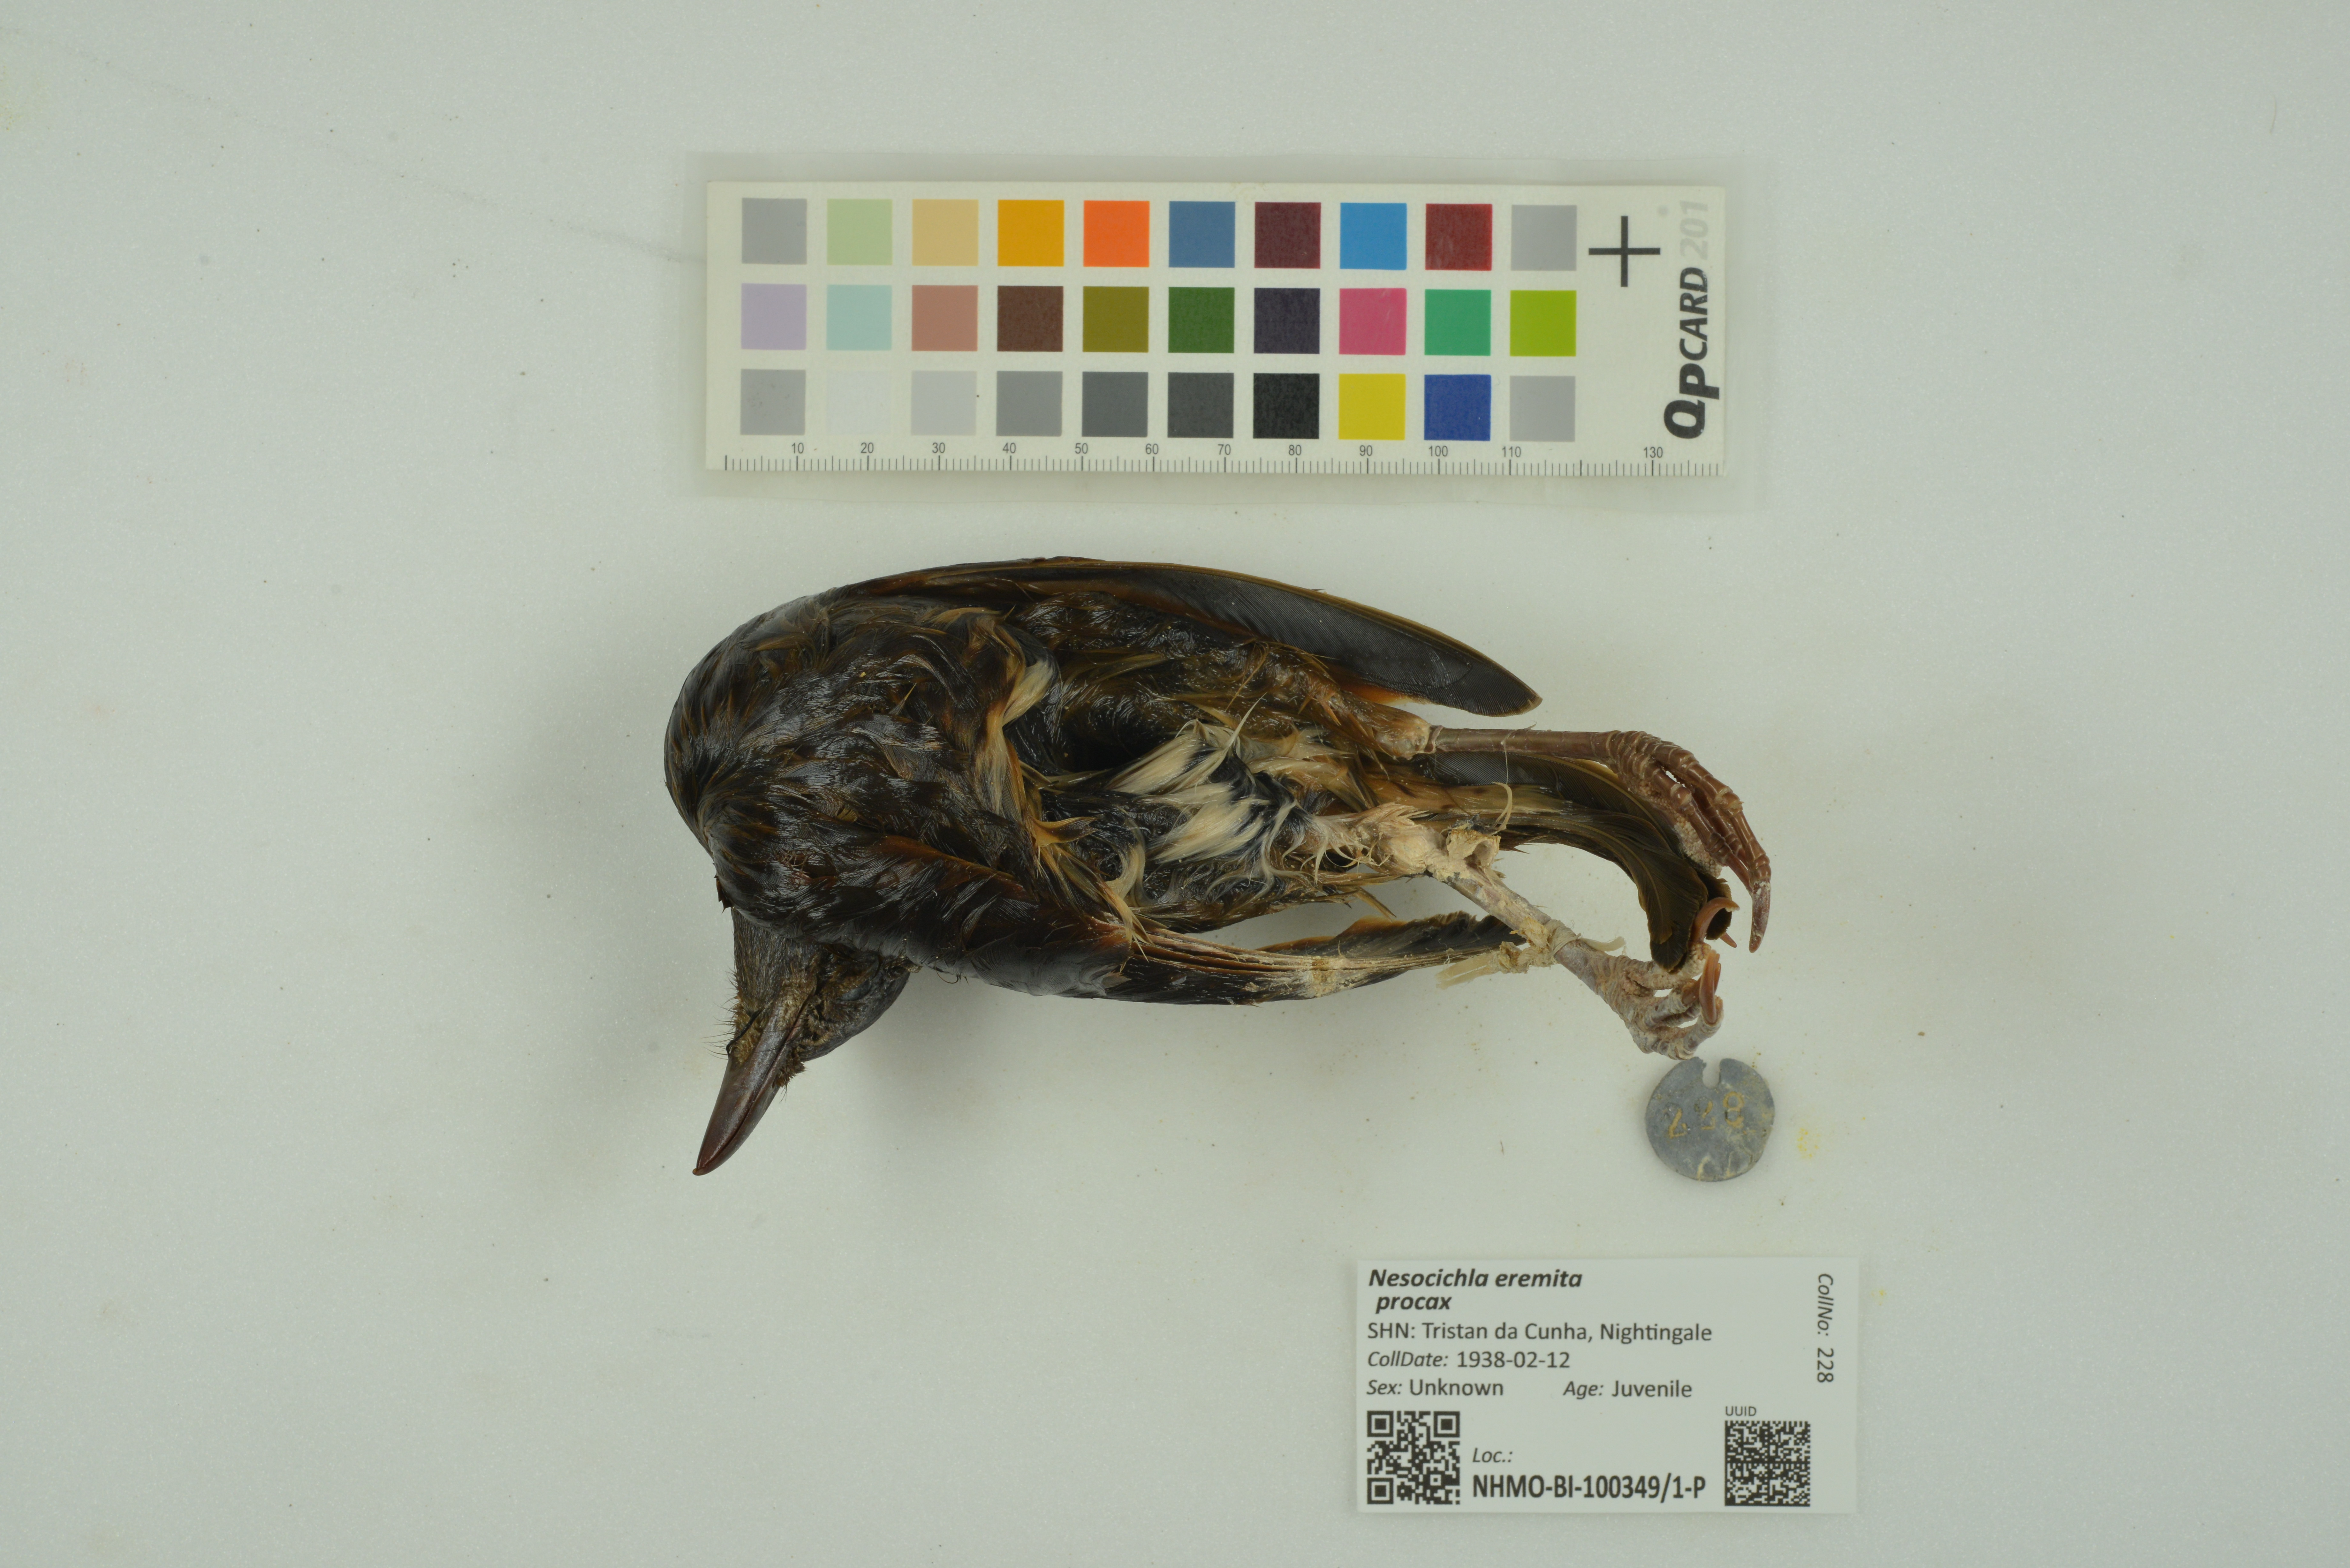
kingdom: Animalia
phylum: Chordata
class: Aves
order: Passeriformes
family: Turdidae
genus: Nesocichla
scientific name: Nesocichla eremita
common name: Tristan thrush
